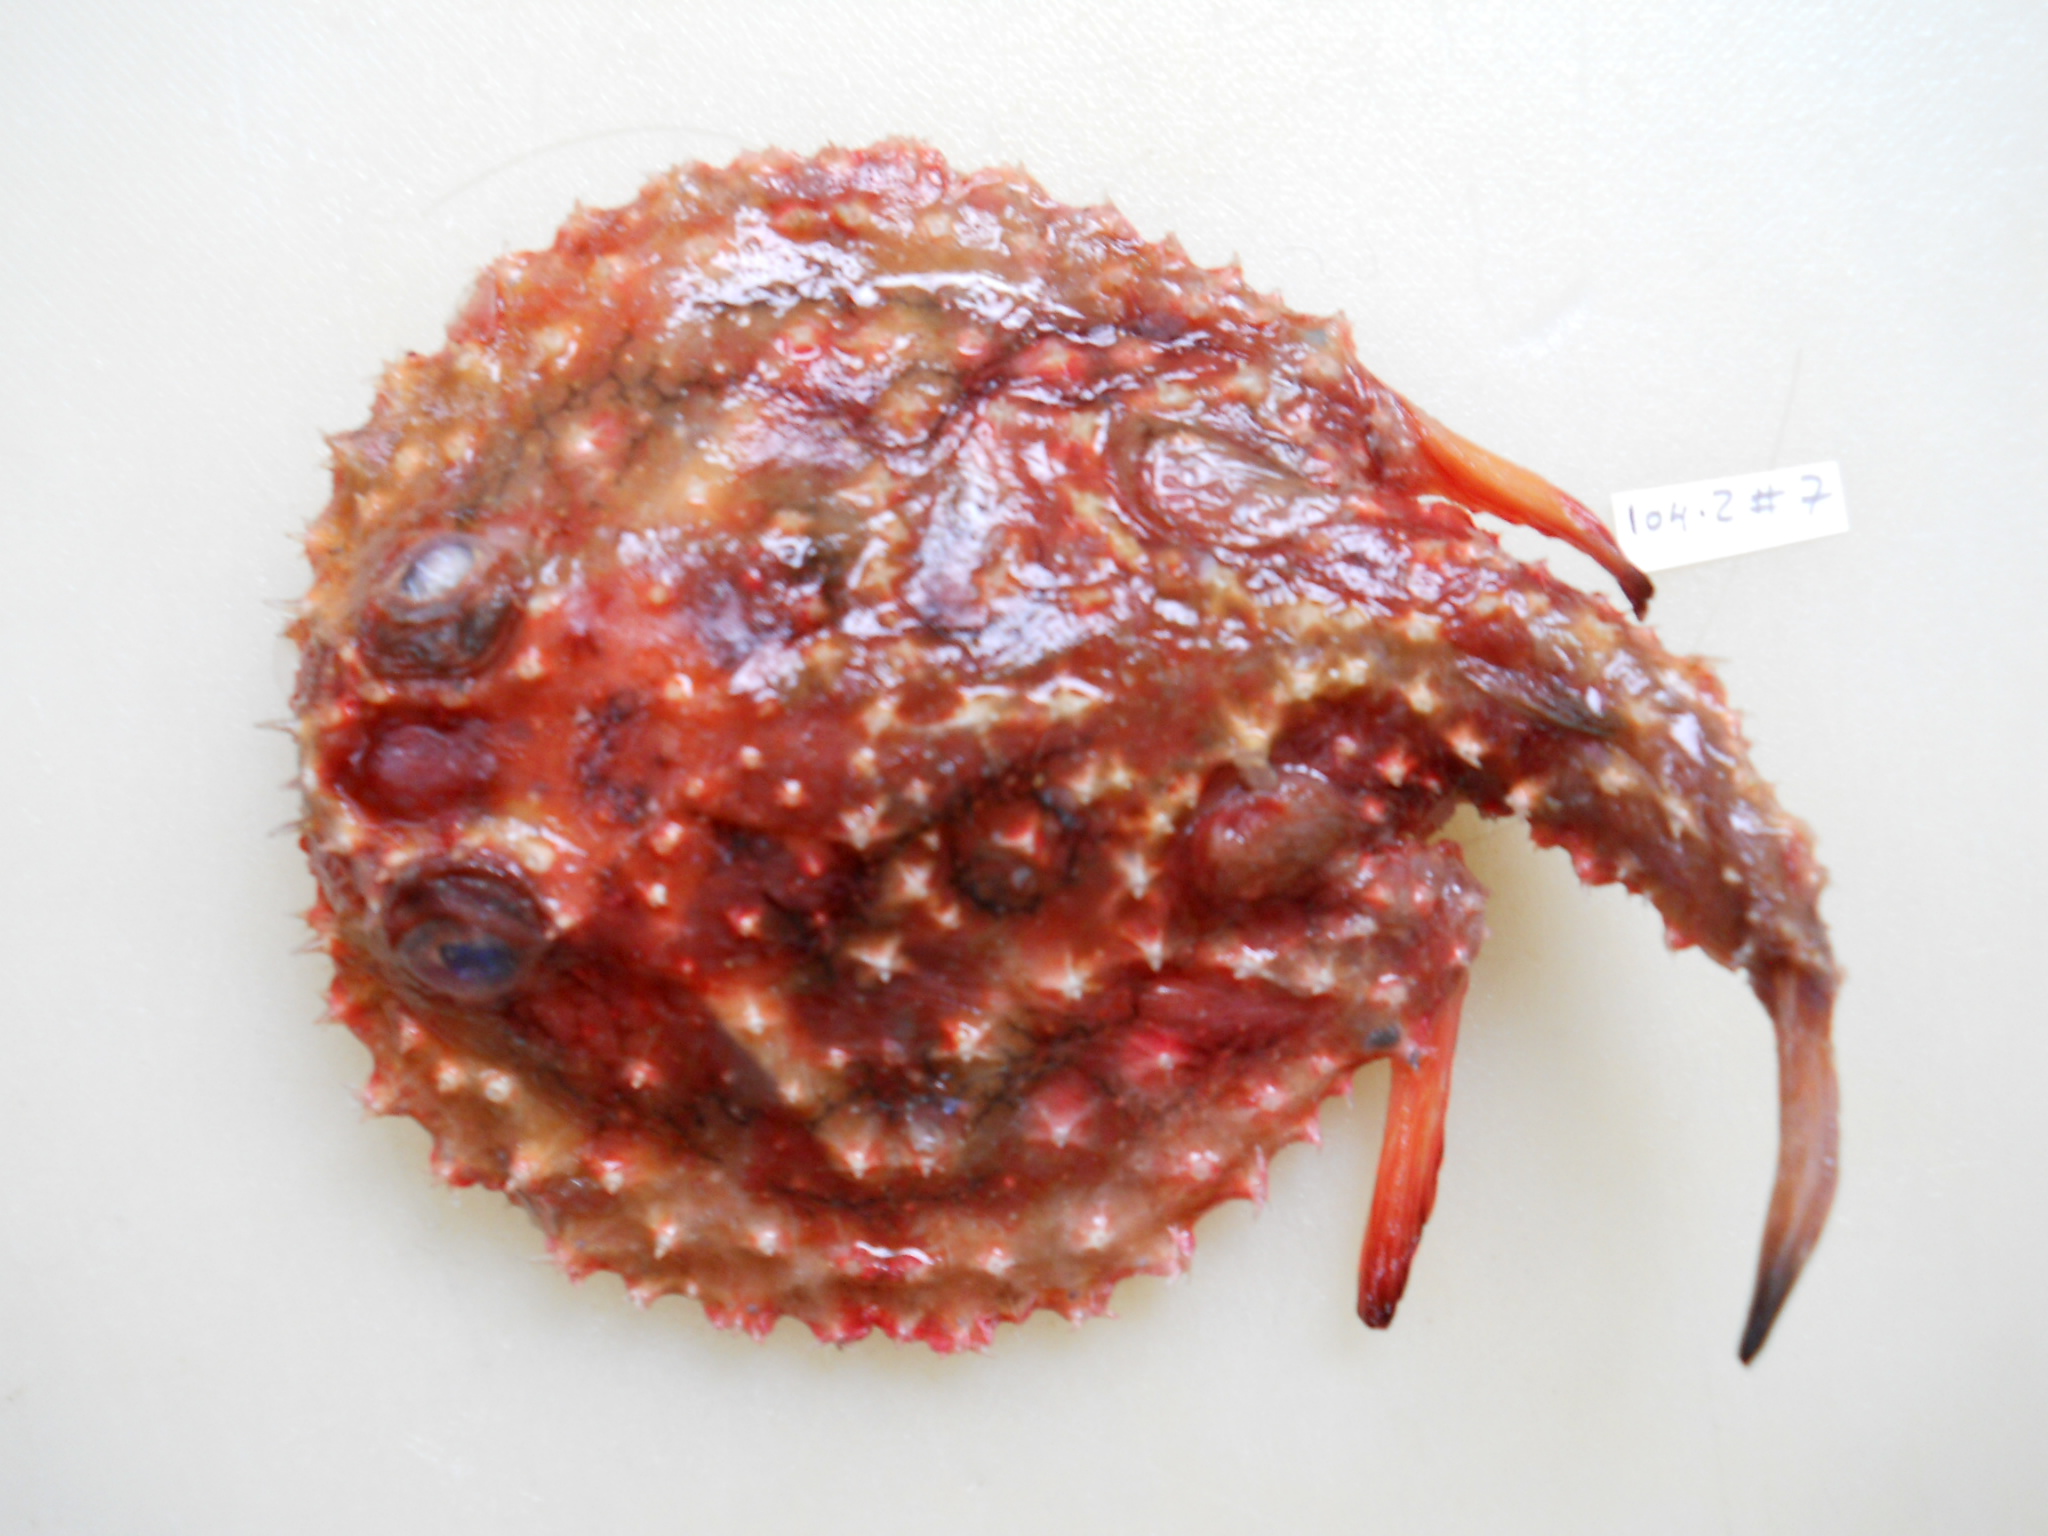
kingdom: Animalia
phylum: Chordata
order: Lophiiformes
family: Ogcocephalidae
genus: Halieutaea
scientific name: Halieutaea fitzsimonsi
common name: Circular seabat
